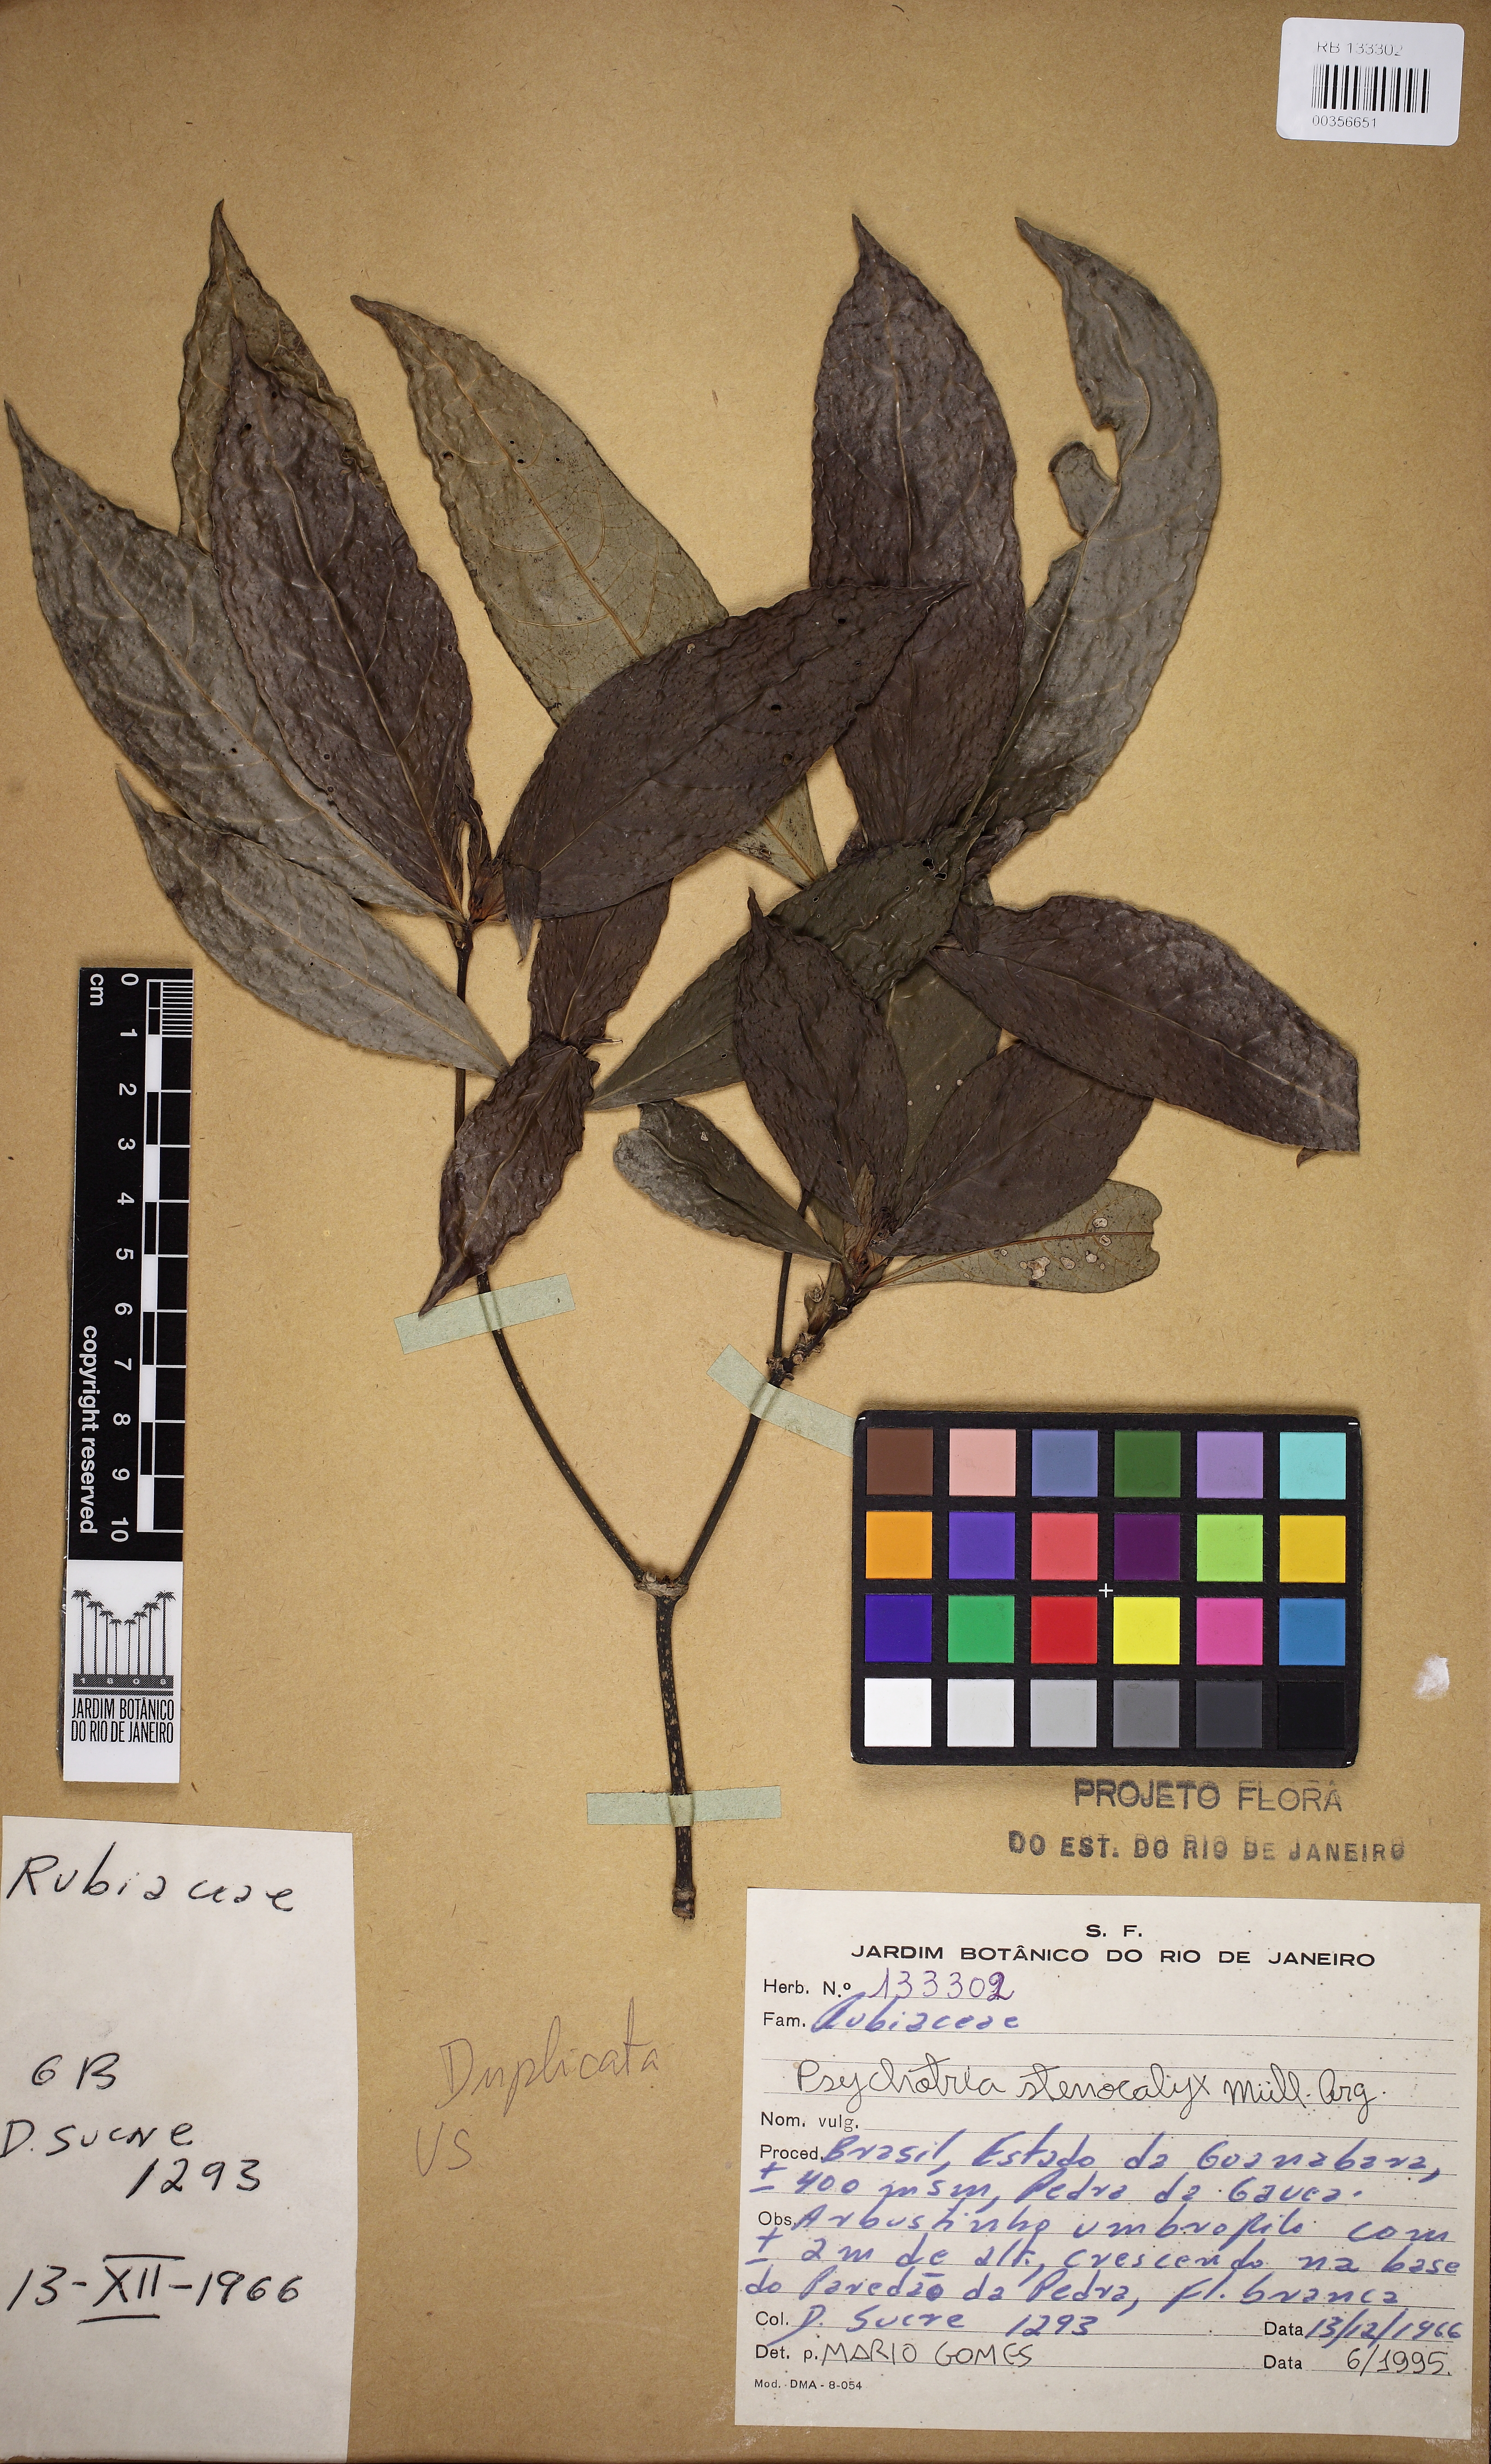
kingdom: Plantae
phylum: Tracheophyta
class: Magnoliopsida
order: Gentianales
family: Rubiaceae
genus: Psychotria
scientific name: Psychotria stenocalyx
